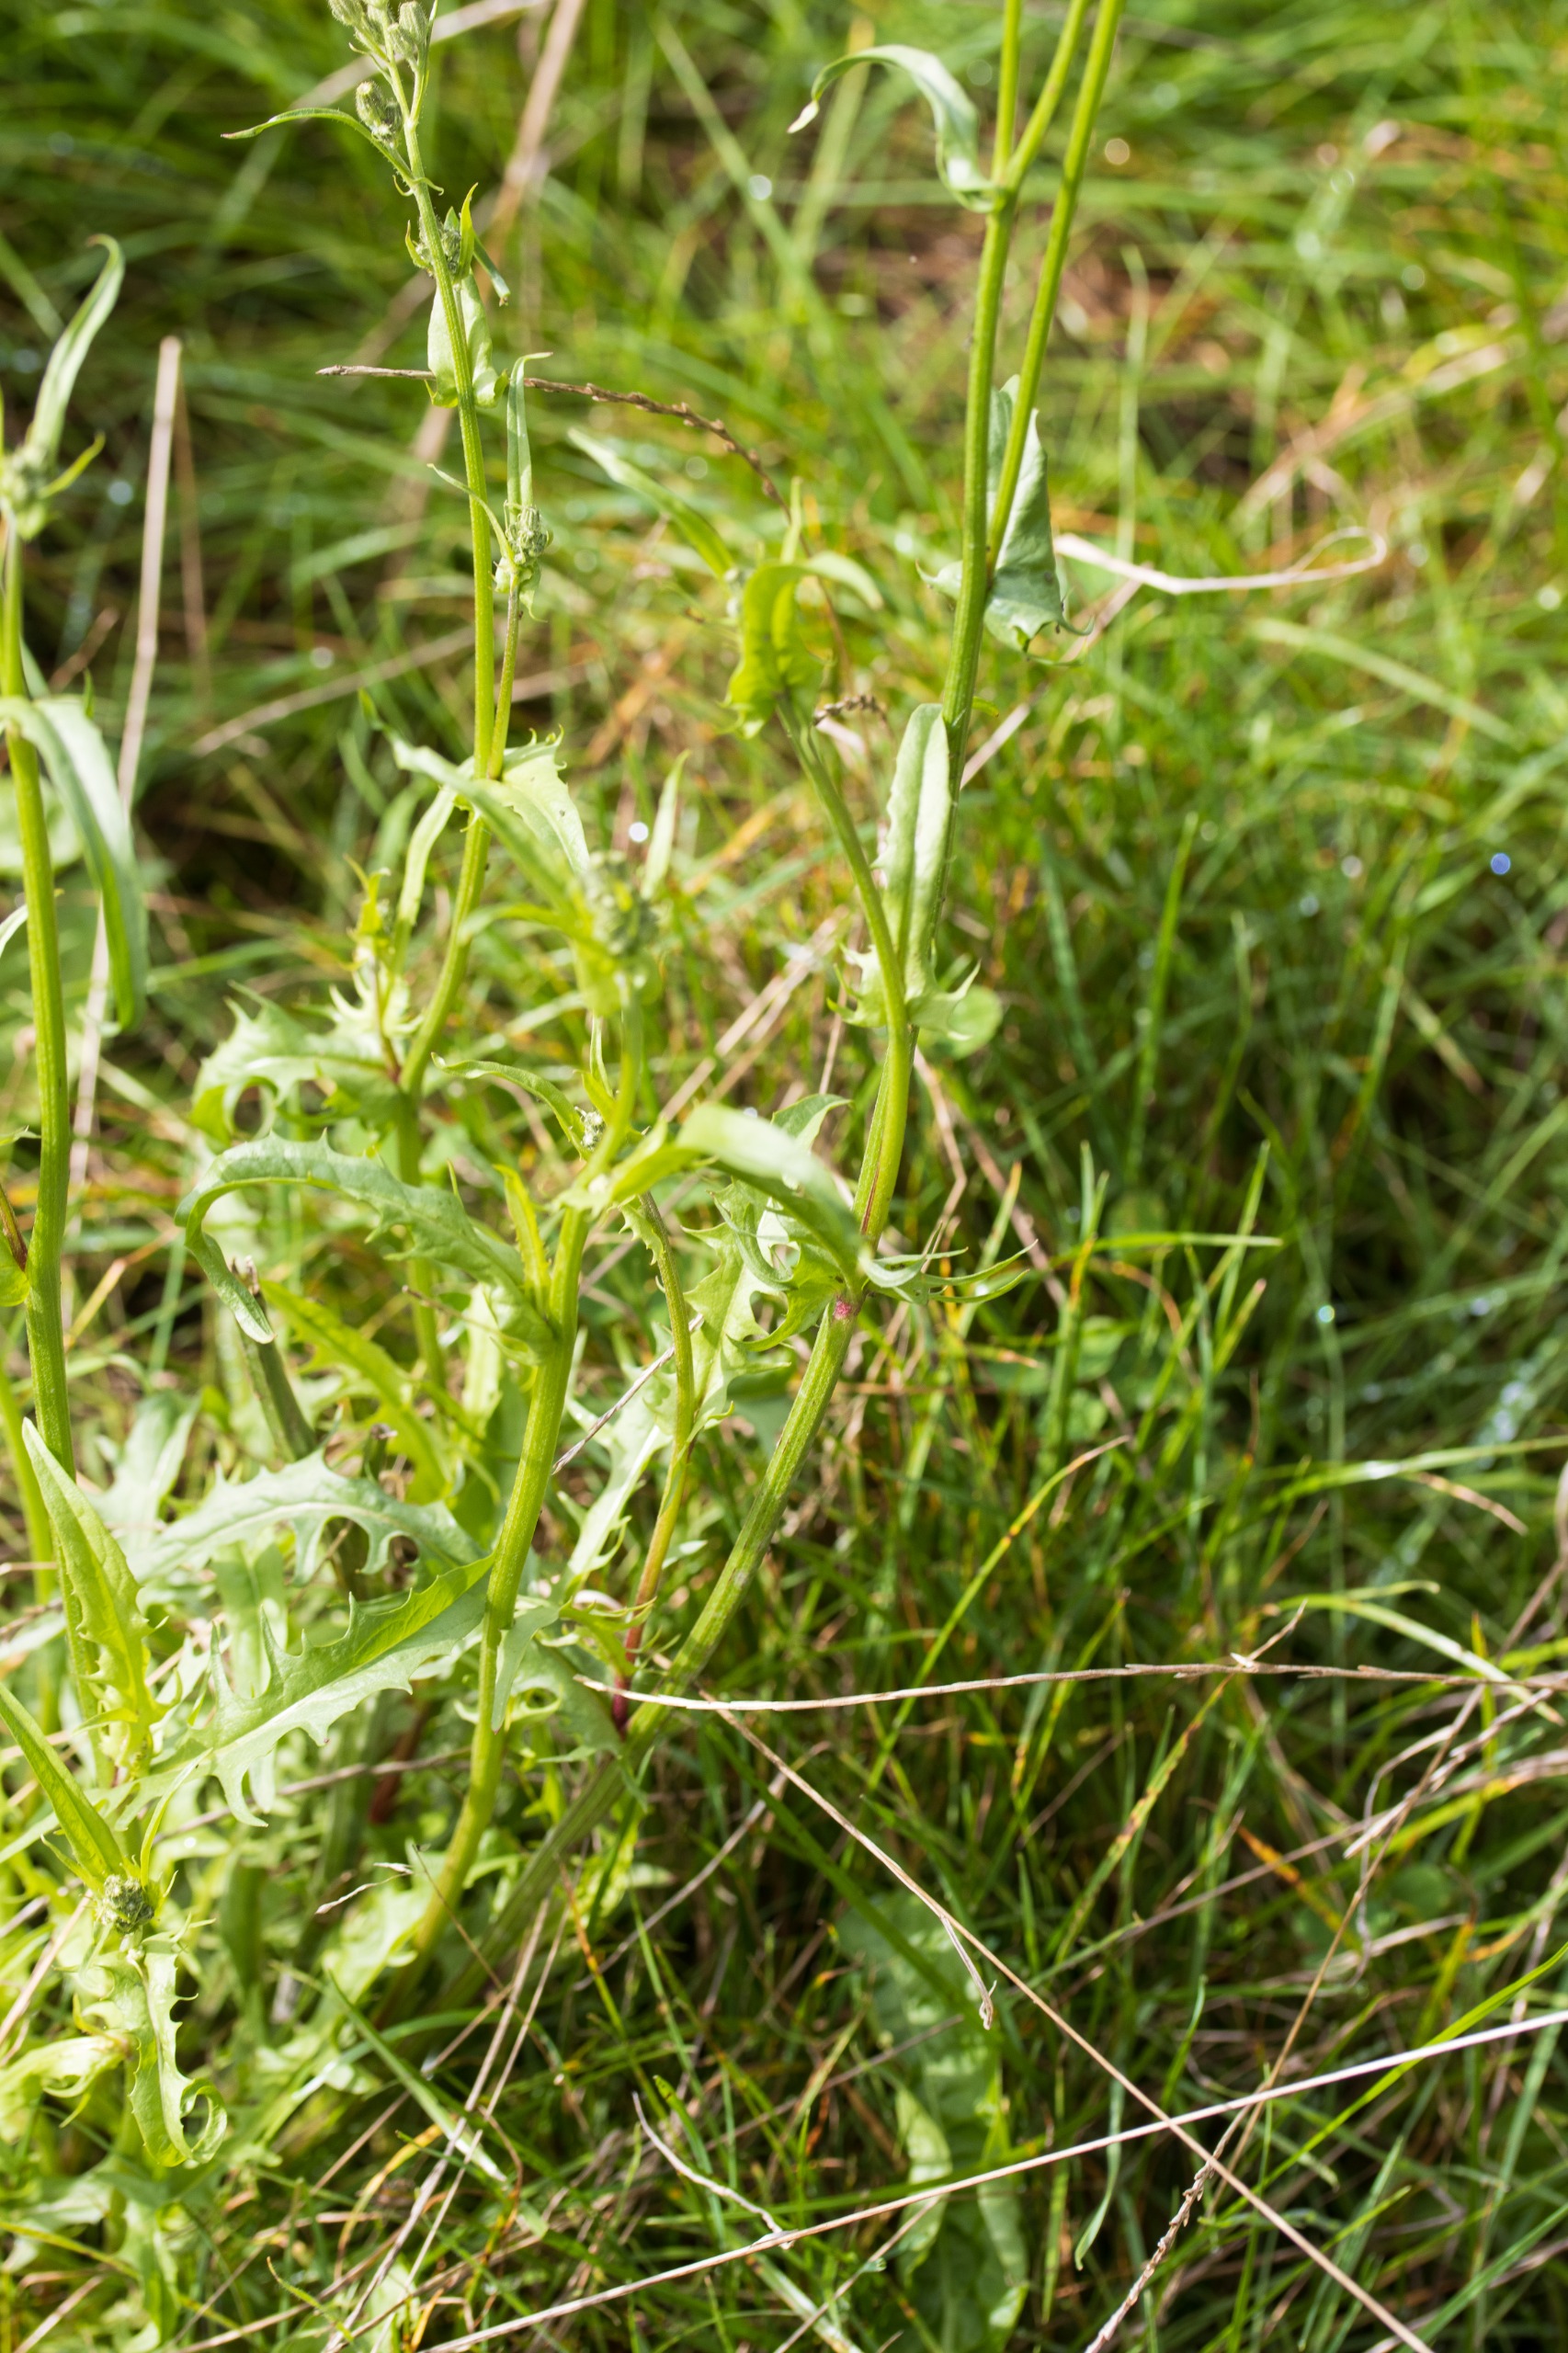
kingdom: Plantae
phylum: Tracheophyta
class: Magnoliopsida
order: Asterales
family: Asteraceae
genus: Crepis
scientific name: Crepis capillaris
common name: Grøn høgeskæg
